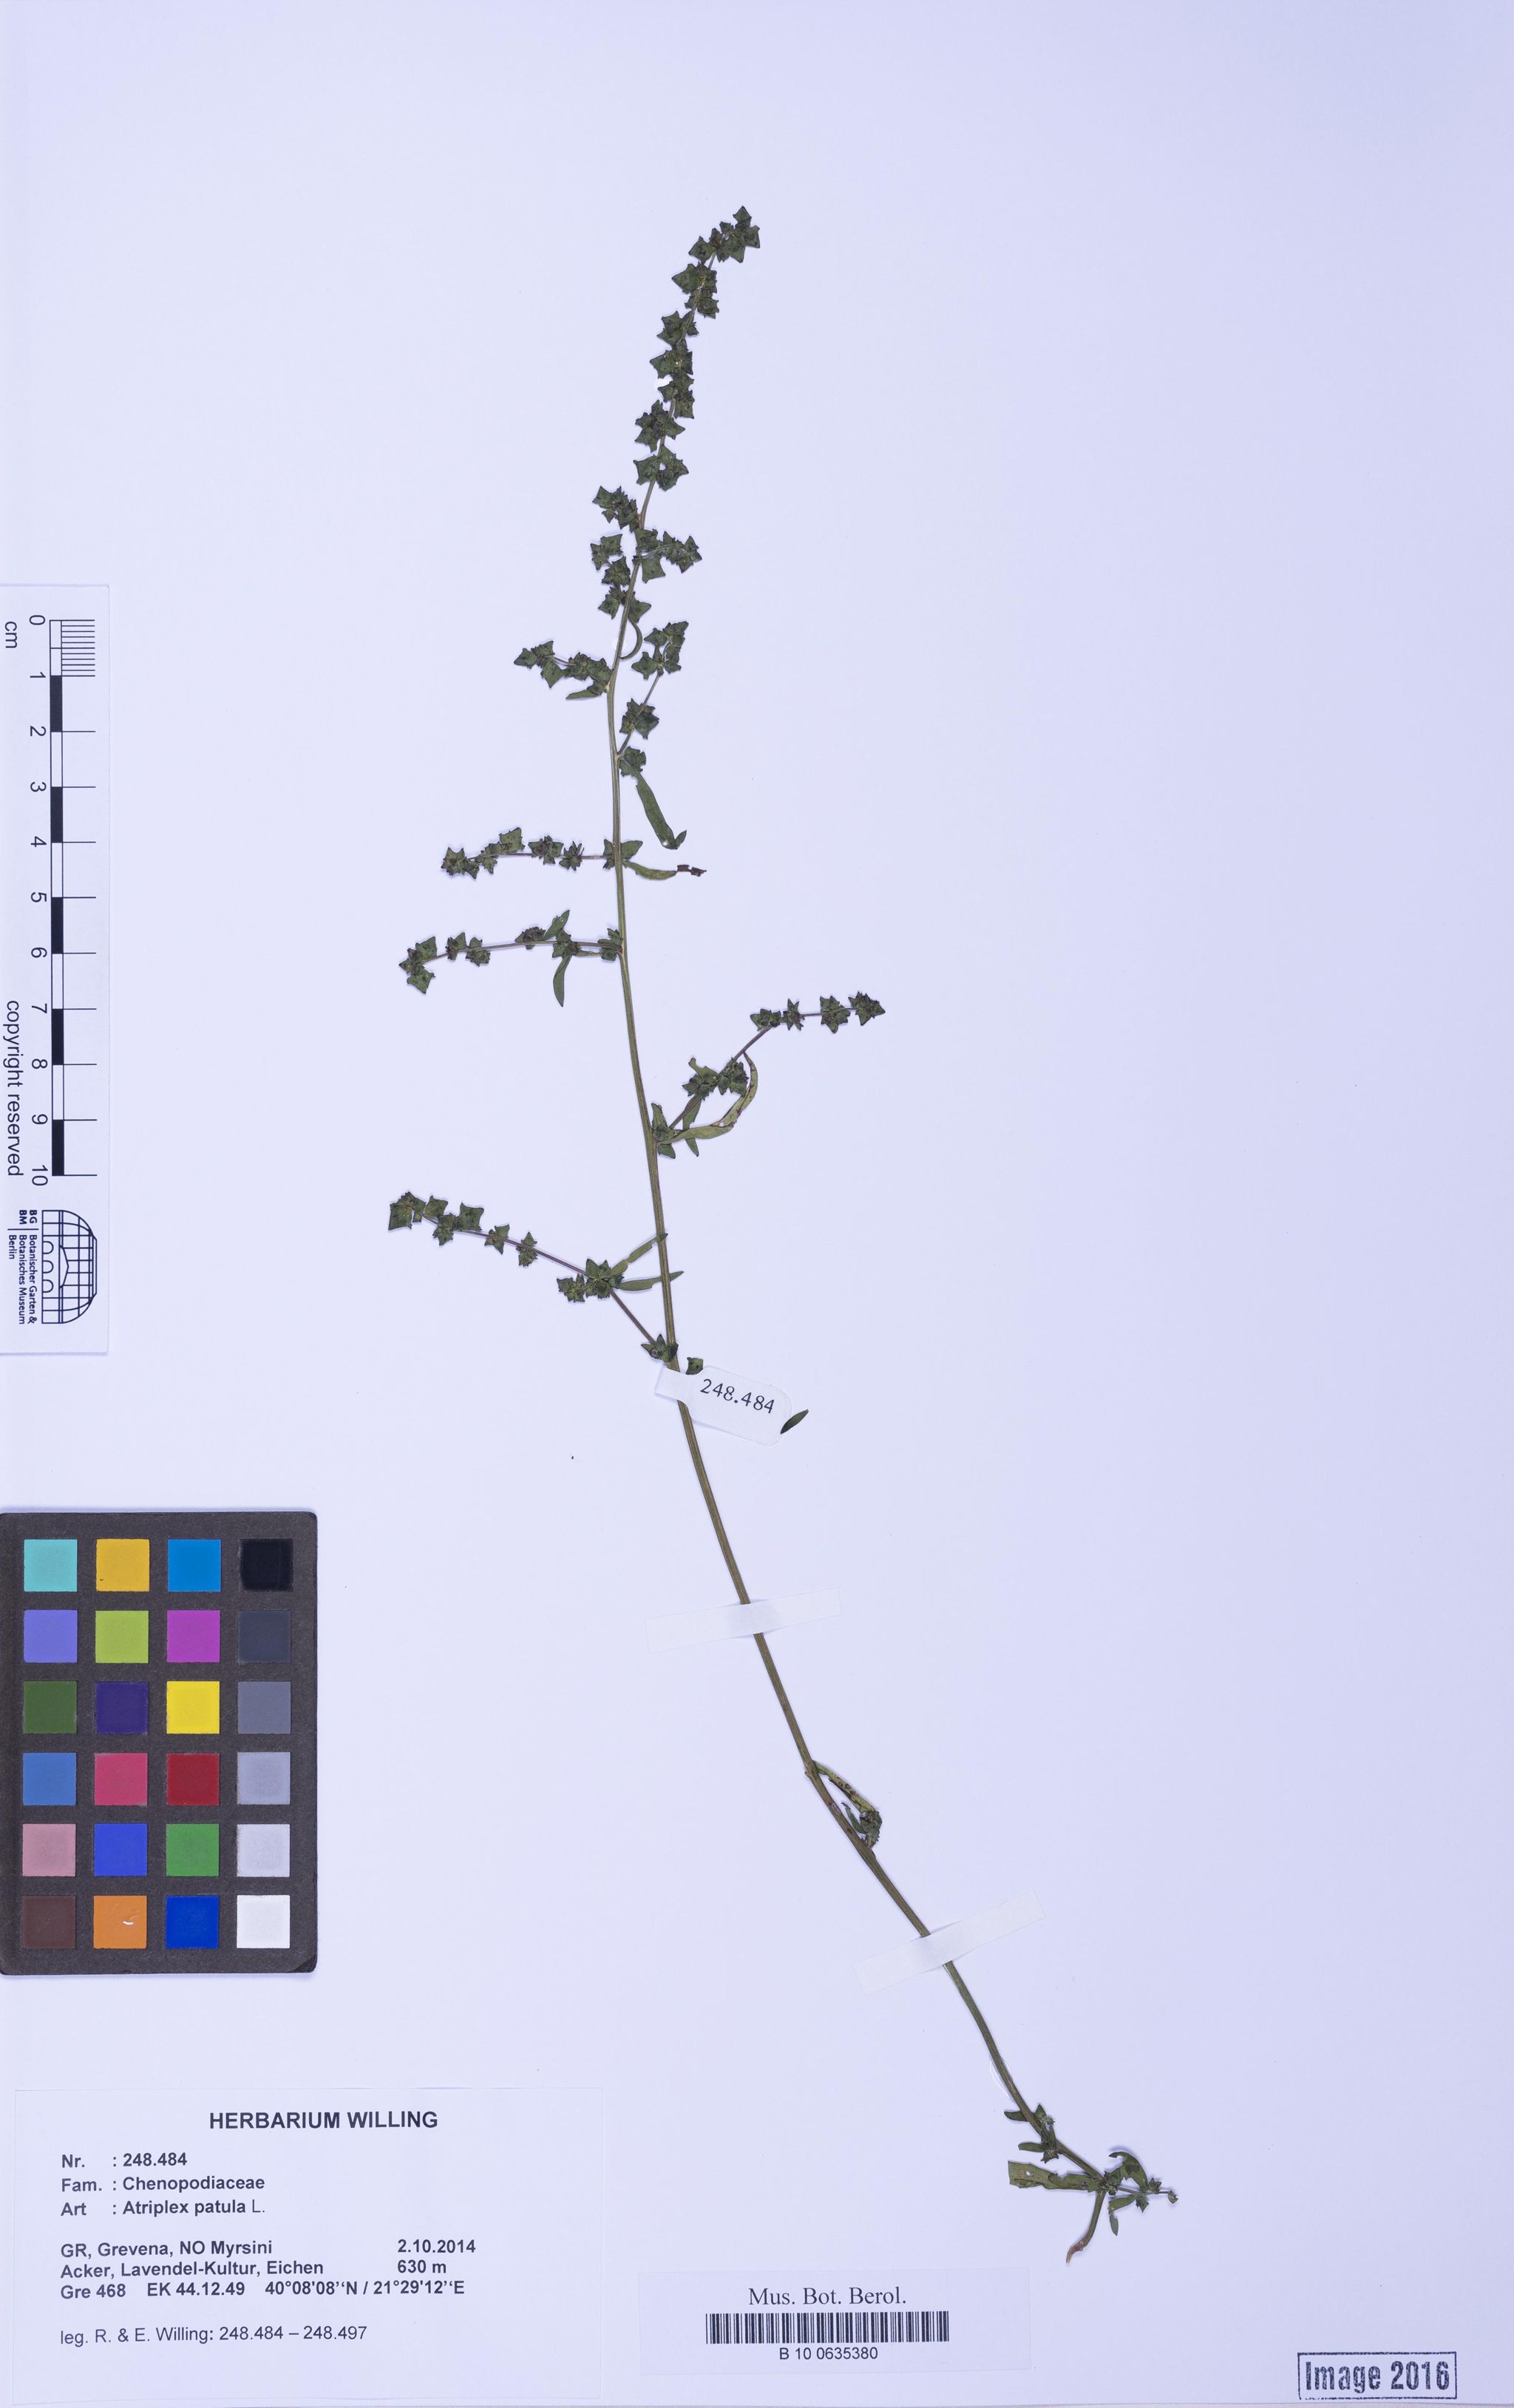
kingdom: Plantae
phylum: Tracheophyta
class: Magnoliopsida
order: Caryophyllales
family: Amaranthaceae
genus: Atriplex
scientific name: Atriplex patula
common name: Common orache
